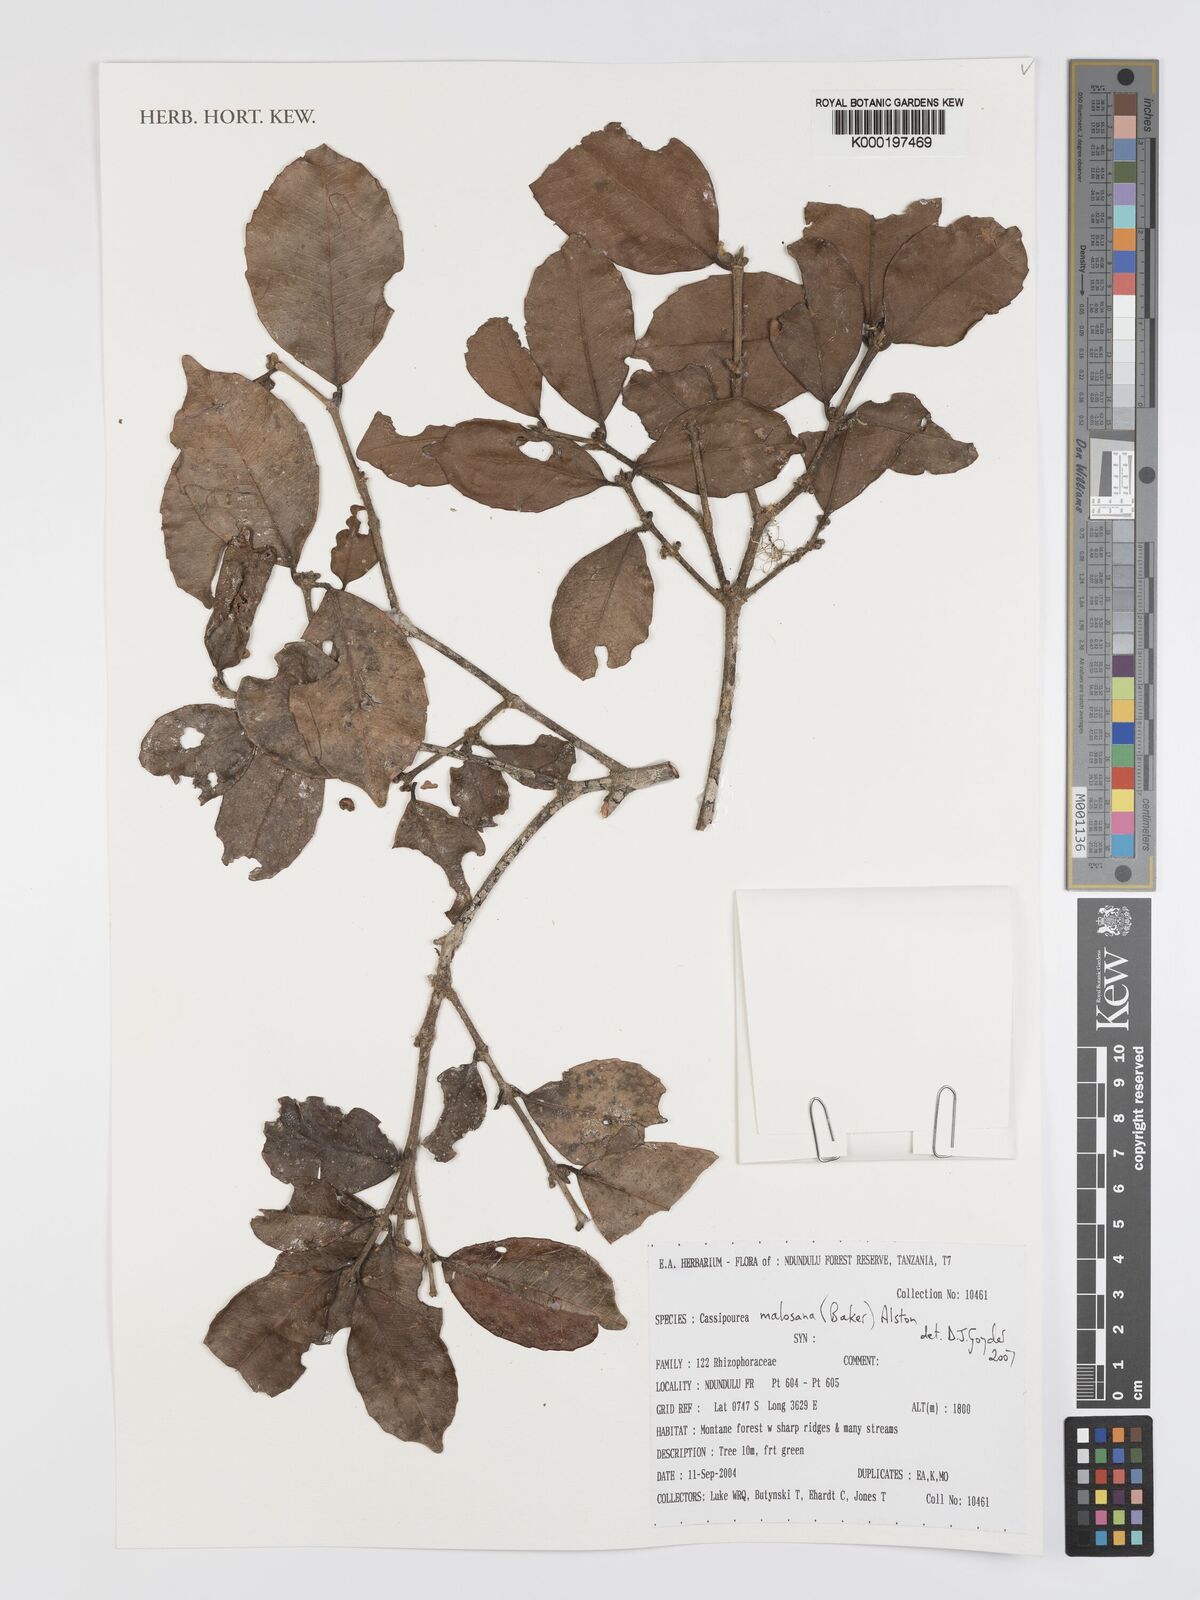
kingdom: Plantae
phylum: Tracheophyta
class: Magnoliopsida
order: Malpighiales
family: Rhizophoraceae
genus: Cassipourea
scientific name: Cassipourea malosana
